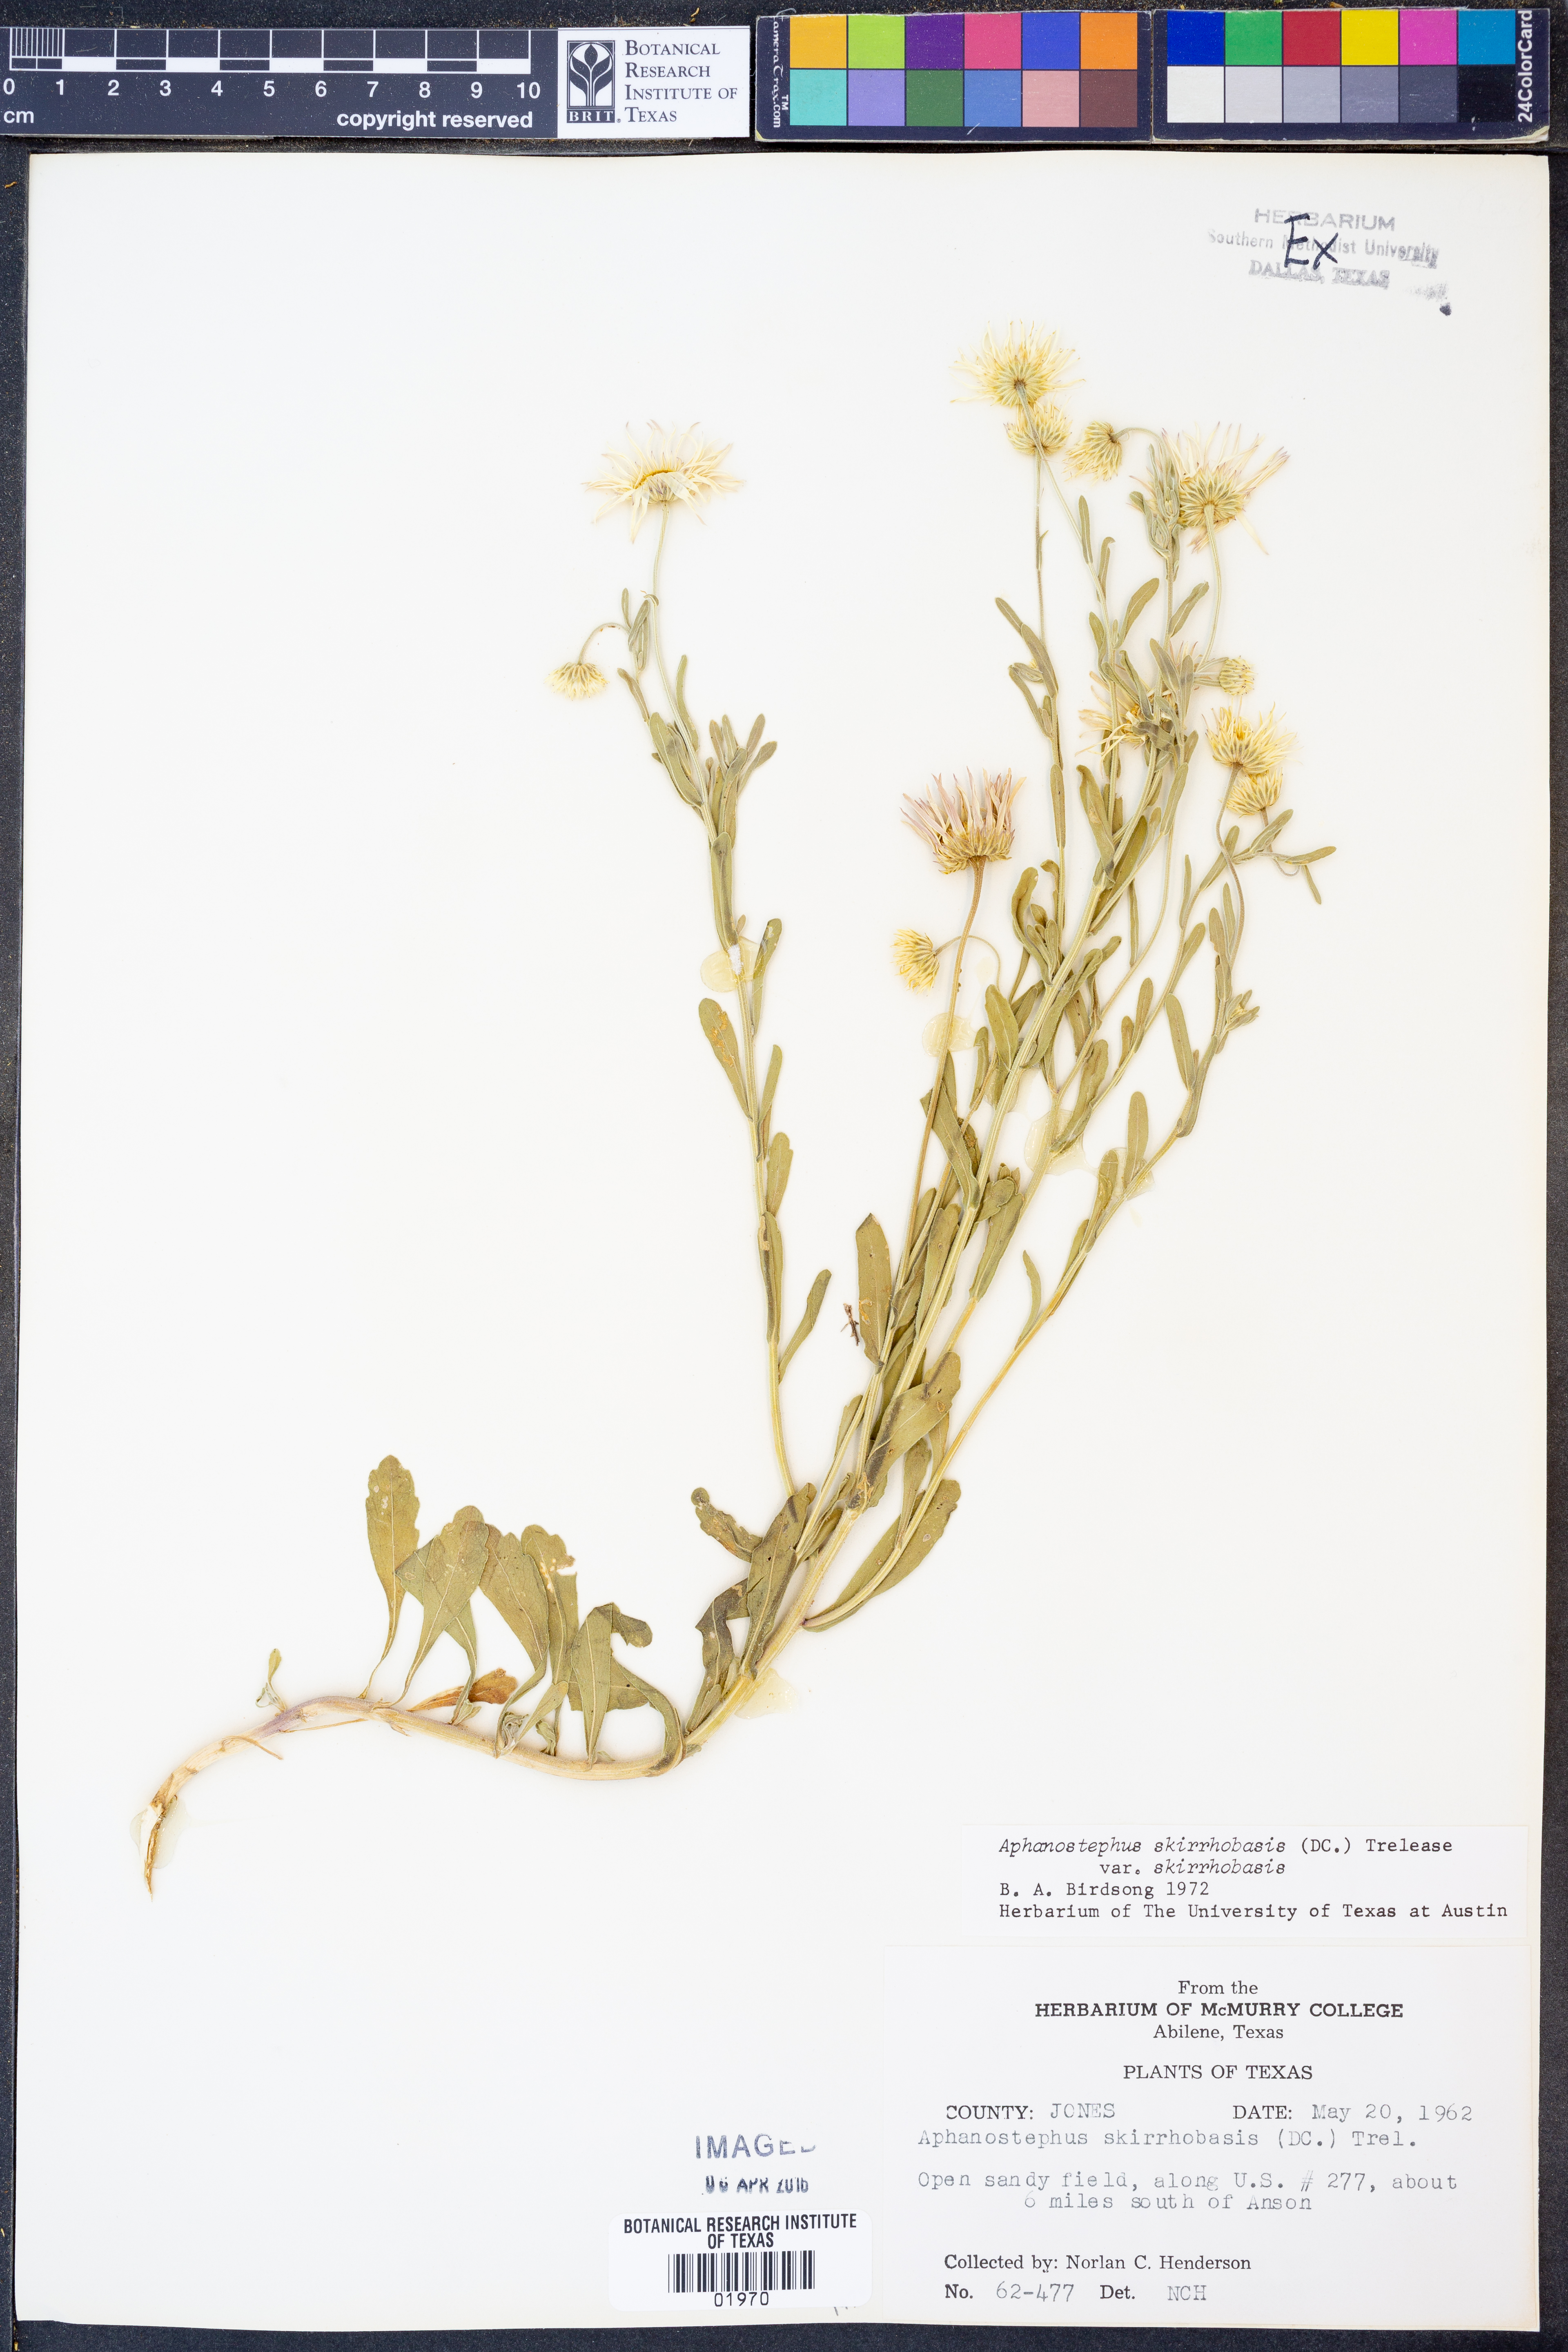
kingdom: Plantae
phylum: Tracheophyta
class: Magnoliopsida
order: Asterales
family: Asteraceae
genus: Aphanostephus
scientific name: Aphanostephus skirrhobasis
